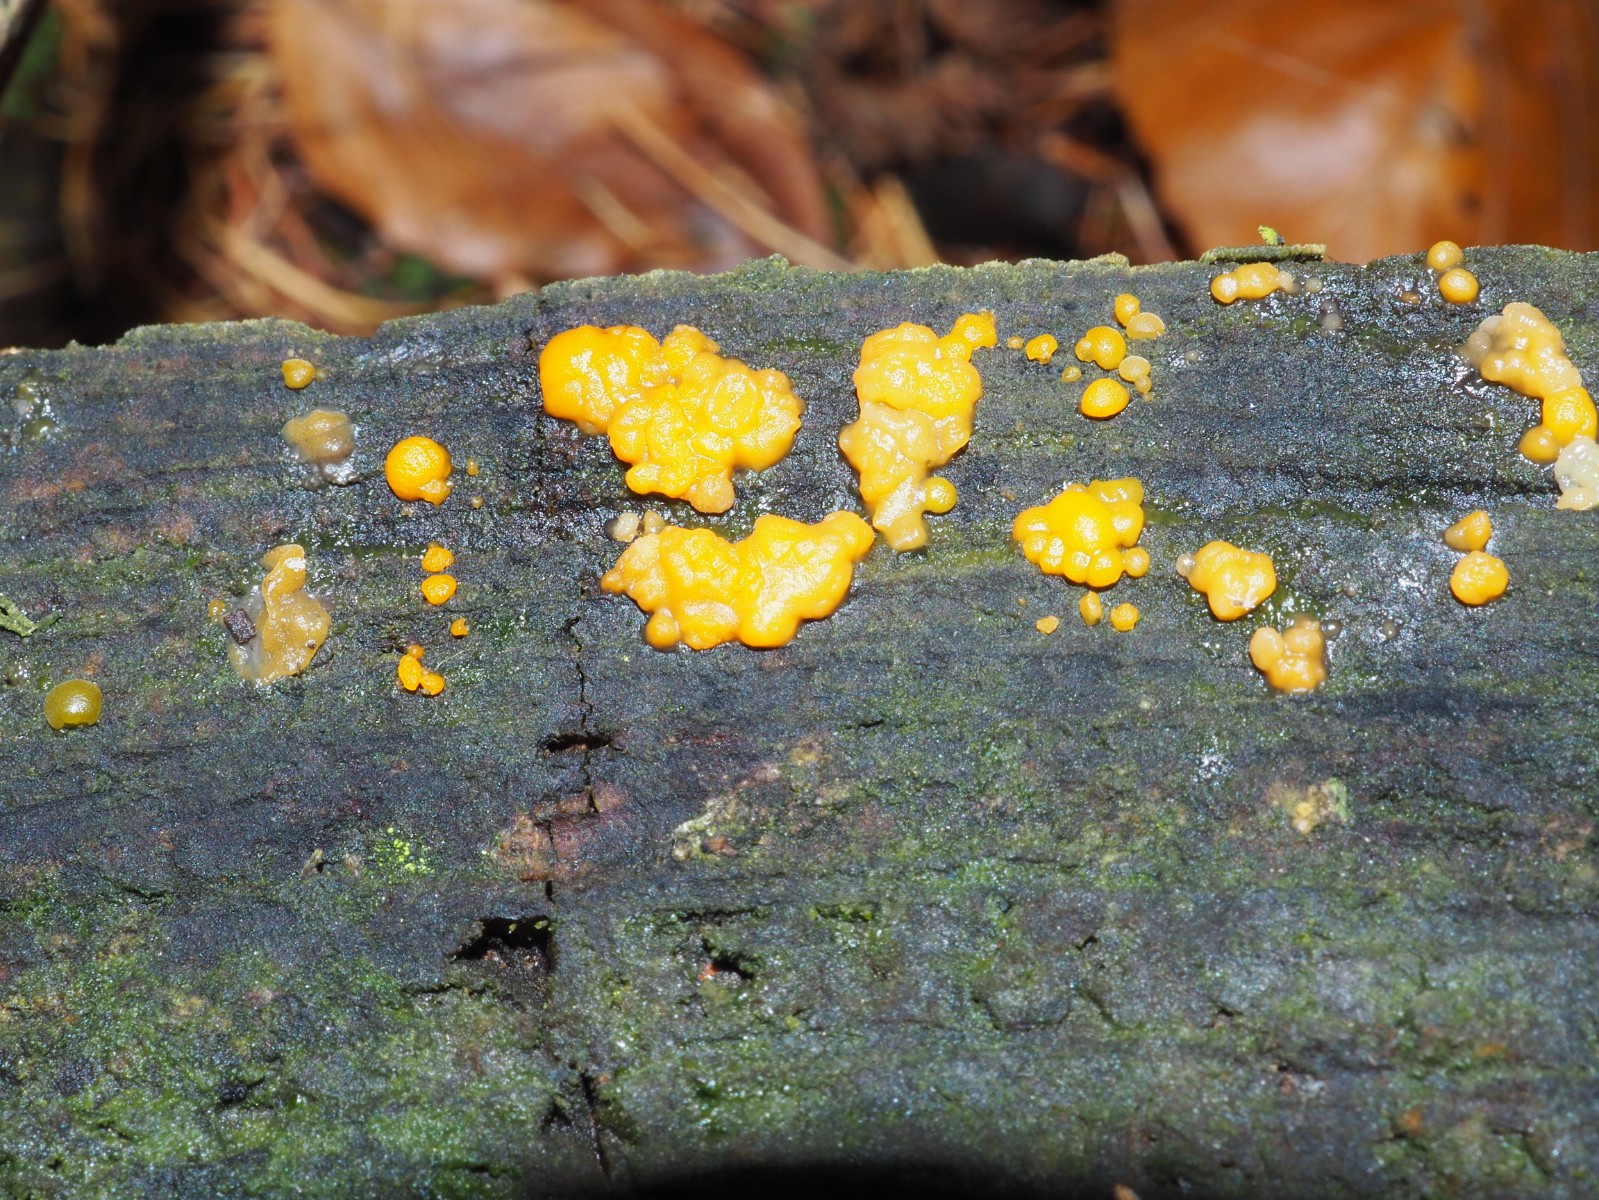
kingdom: Fungi
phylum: Basidiomycota
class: Dacrymycetes
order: Dacrymycetales
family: Dacrymycetaceae
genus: Dacrymyces
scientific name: Dacrymyces stillatus
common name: almindelig tåresvamp
